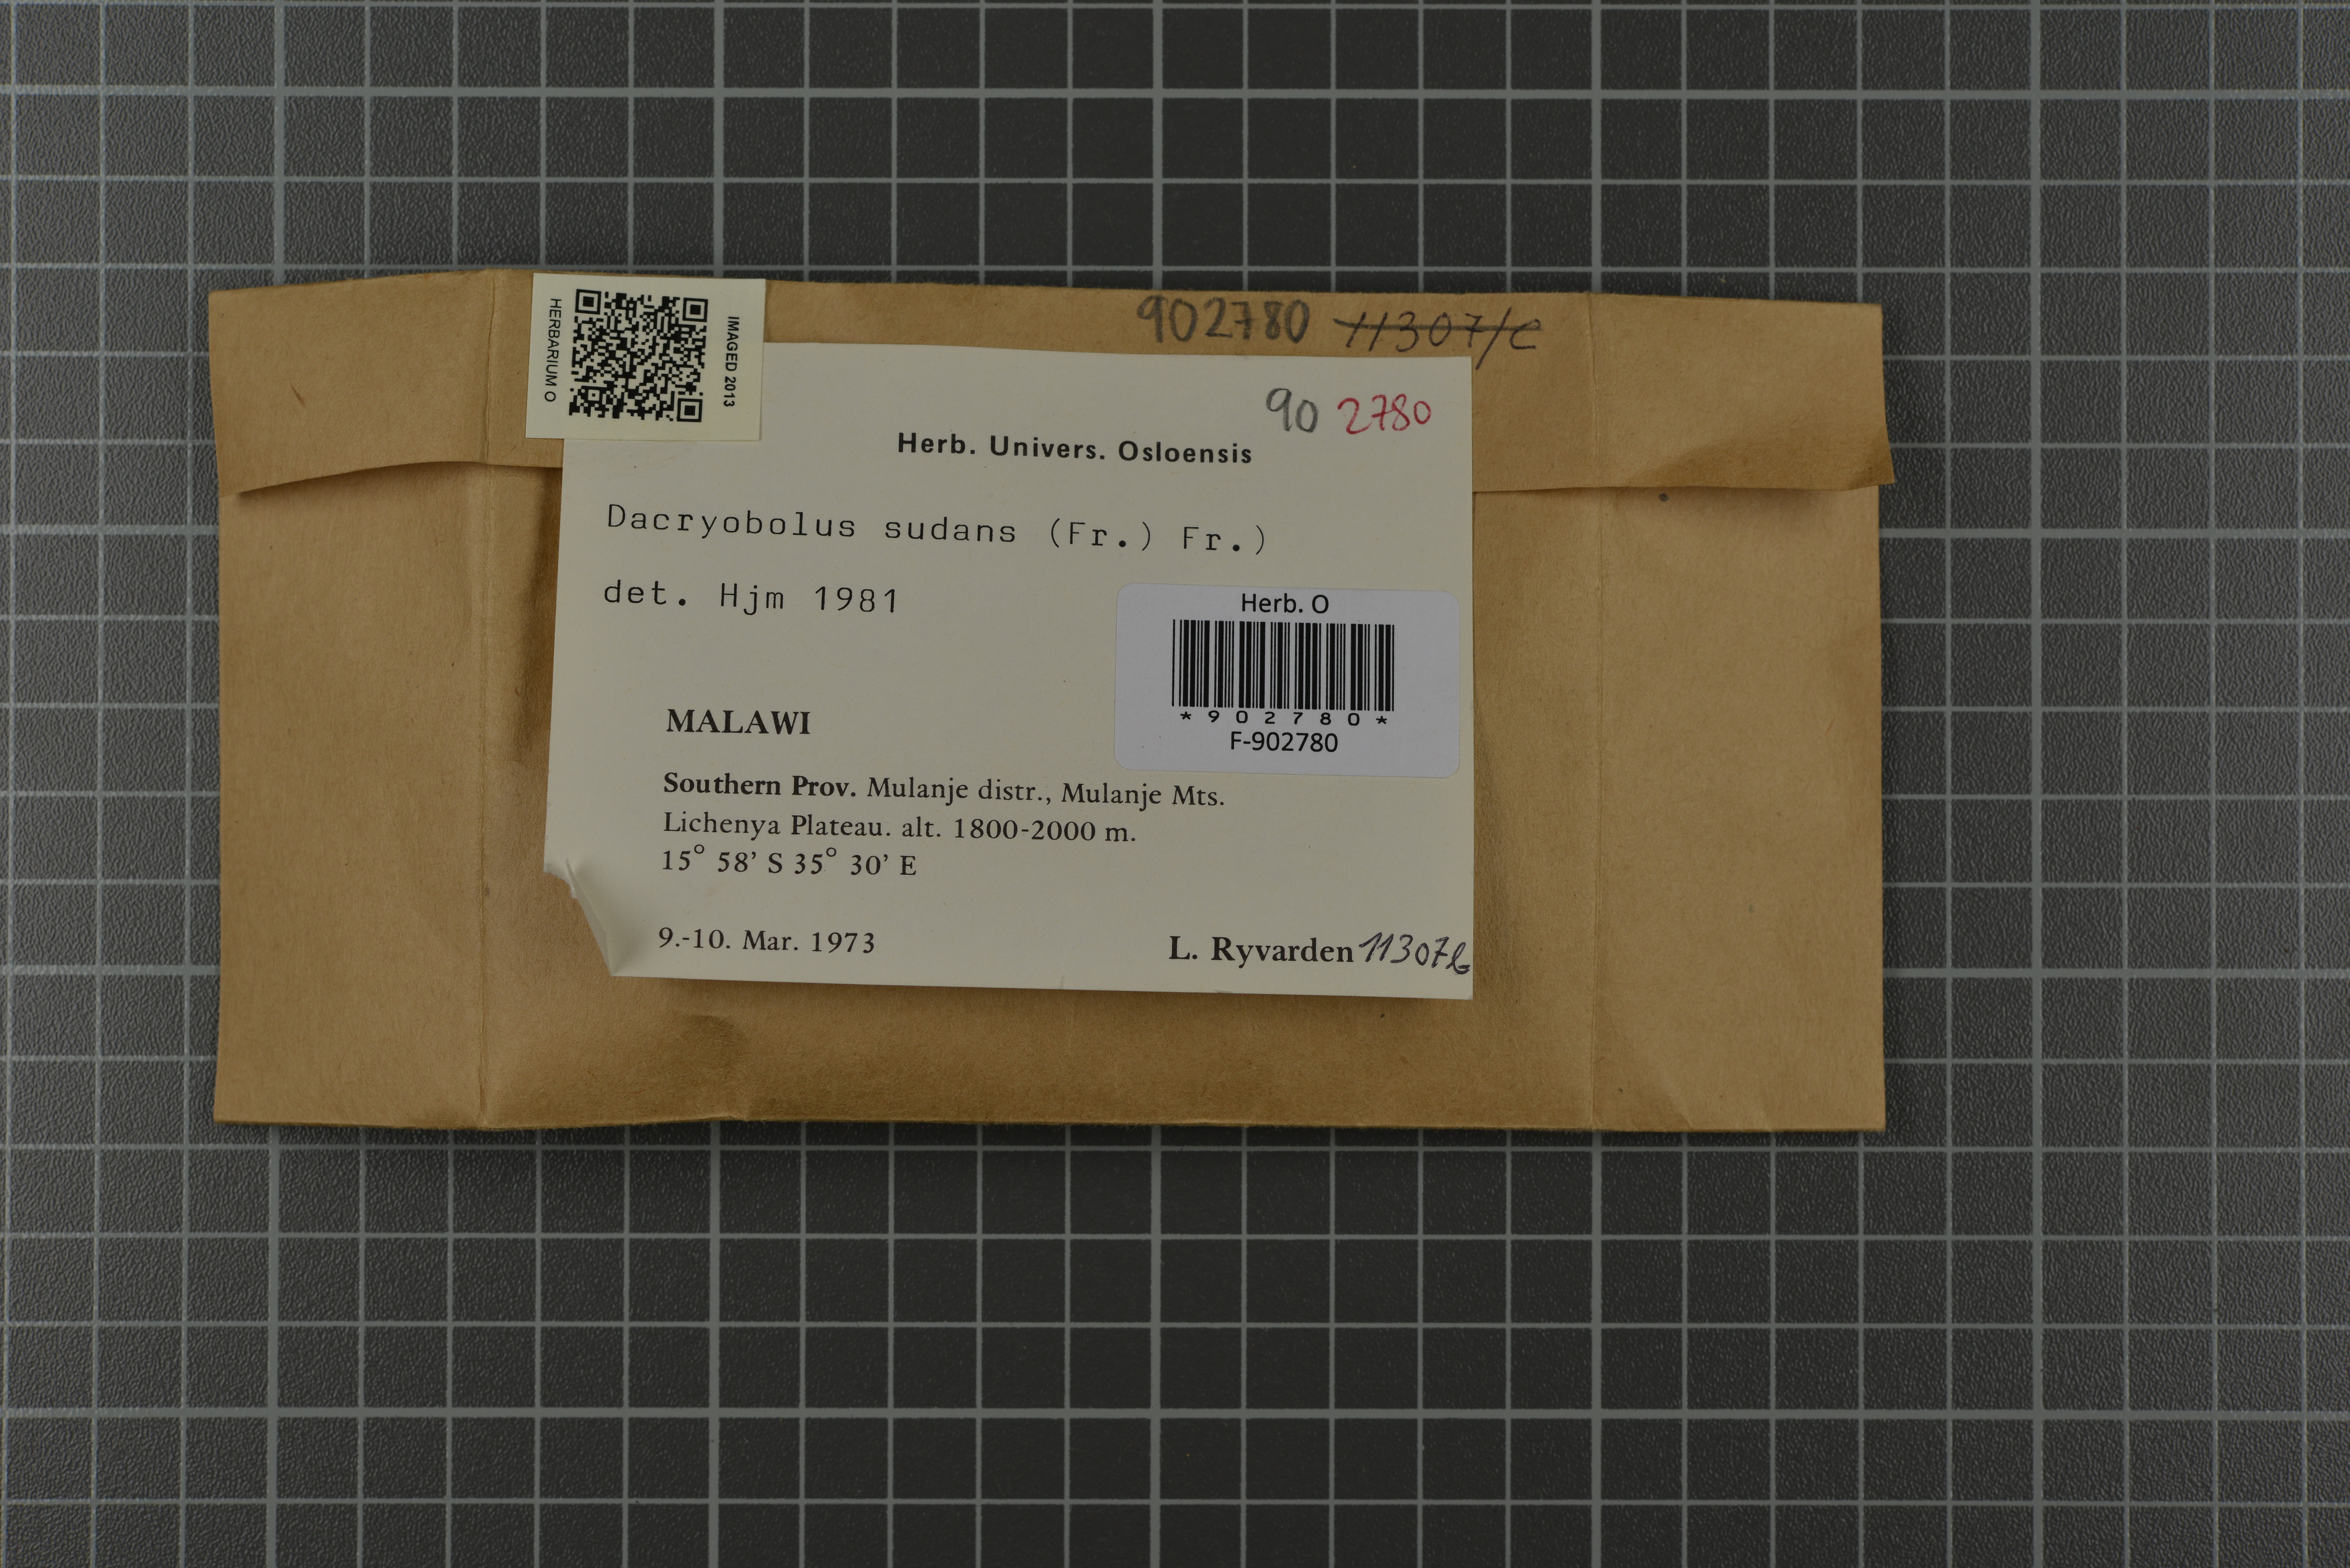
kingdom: Fungi
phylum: Basidiomycota
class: Agaricomycetes
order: Polyporales
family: Dacryobolaceae
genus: Dacryobolus
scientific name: Dacryobolus sudans
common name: Weeping toothcrust
